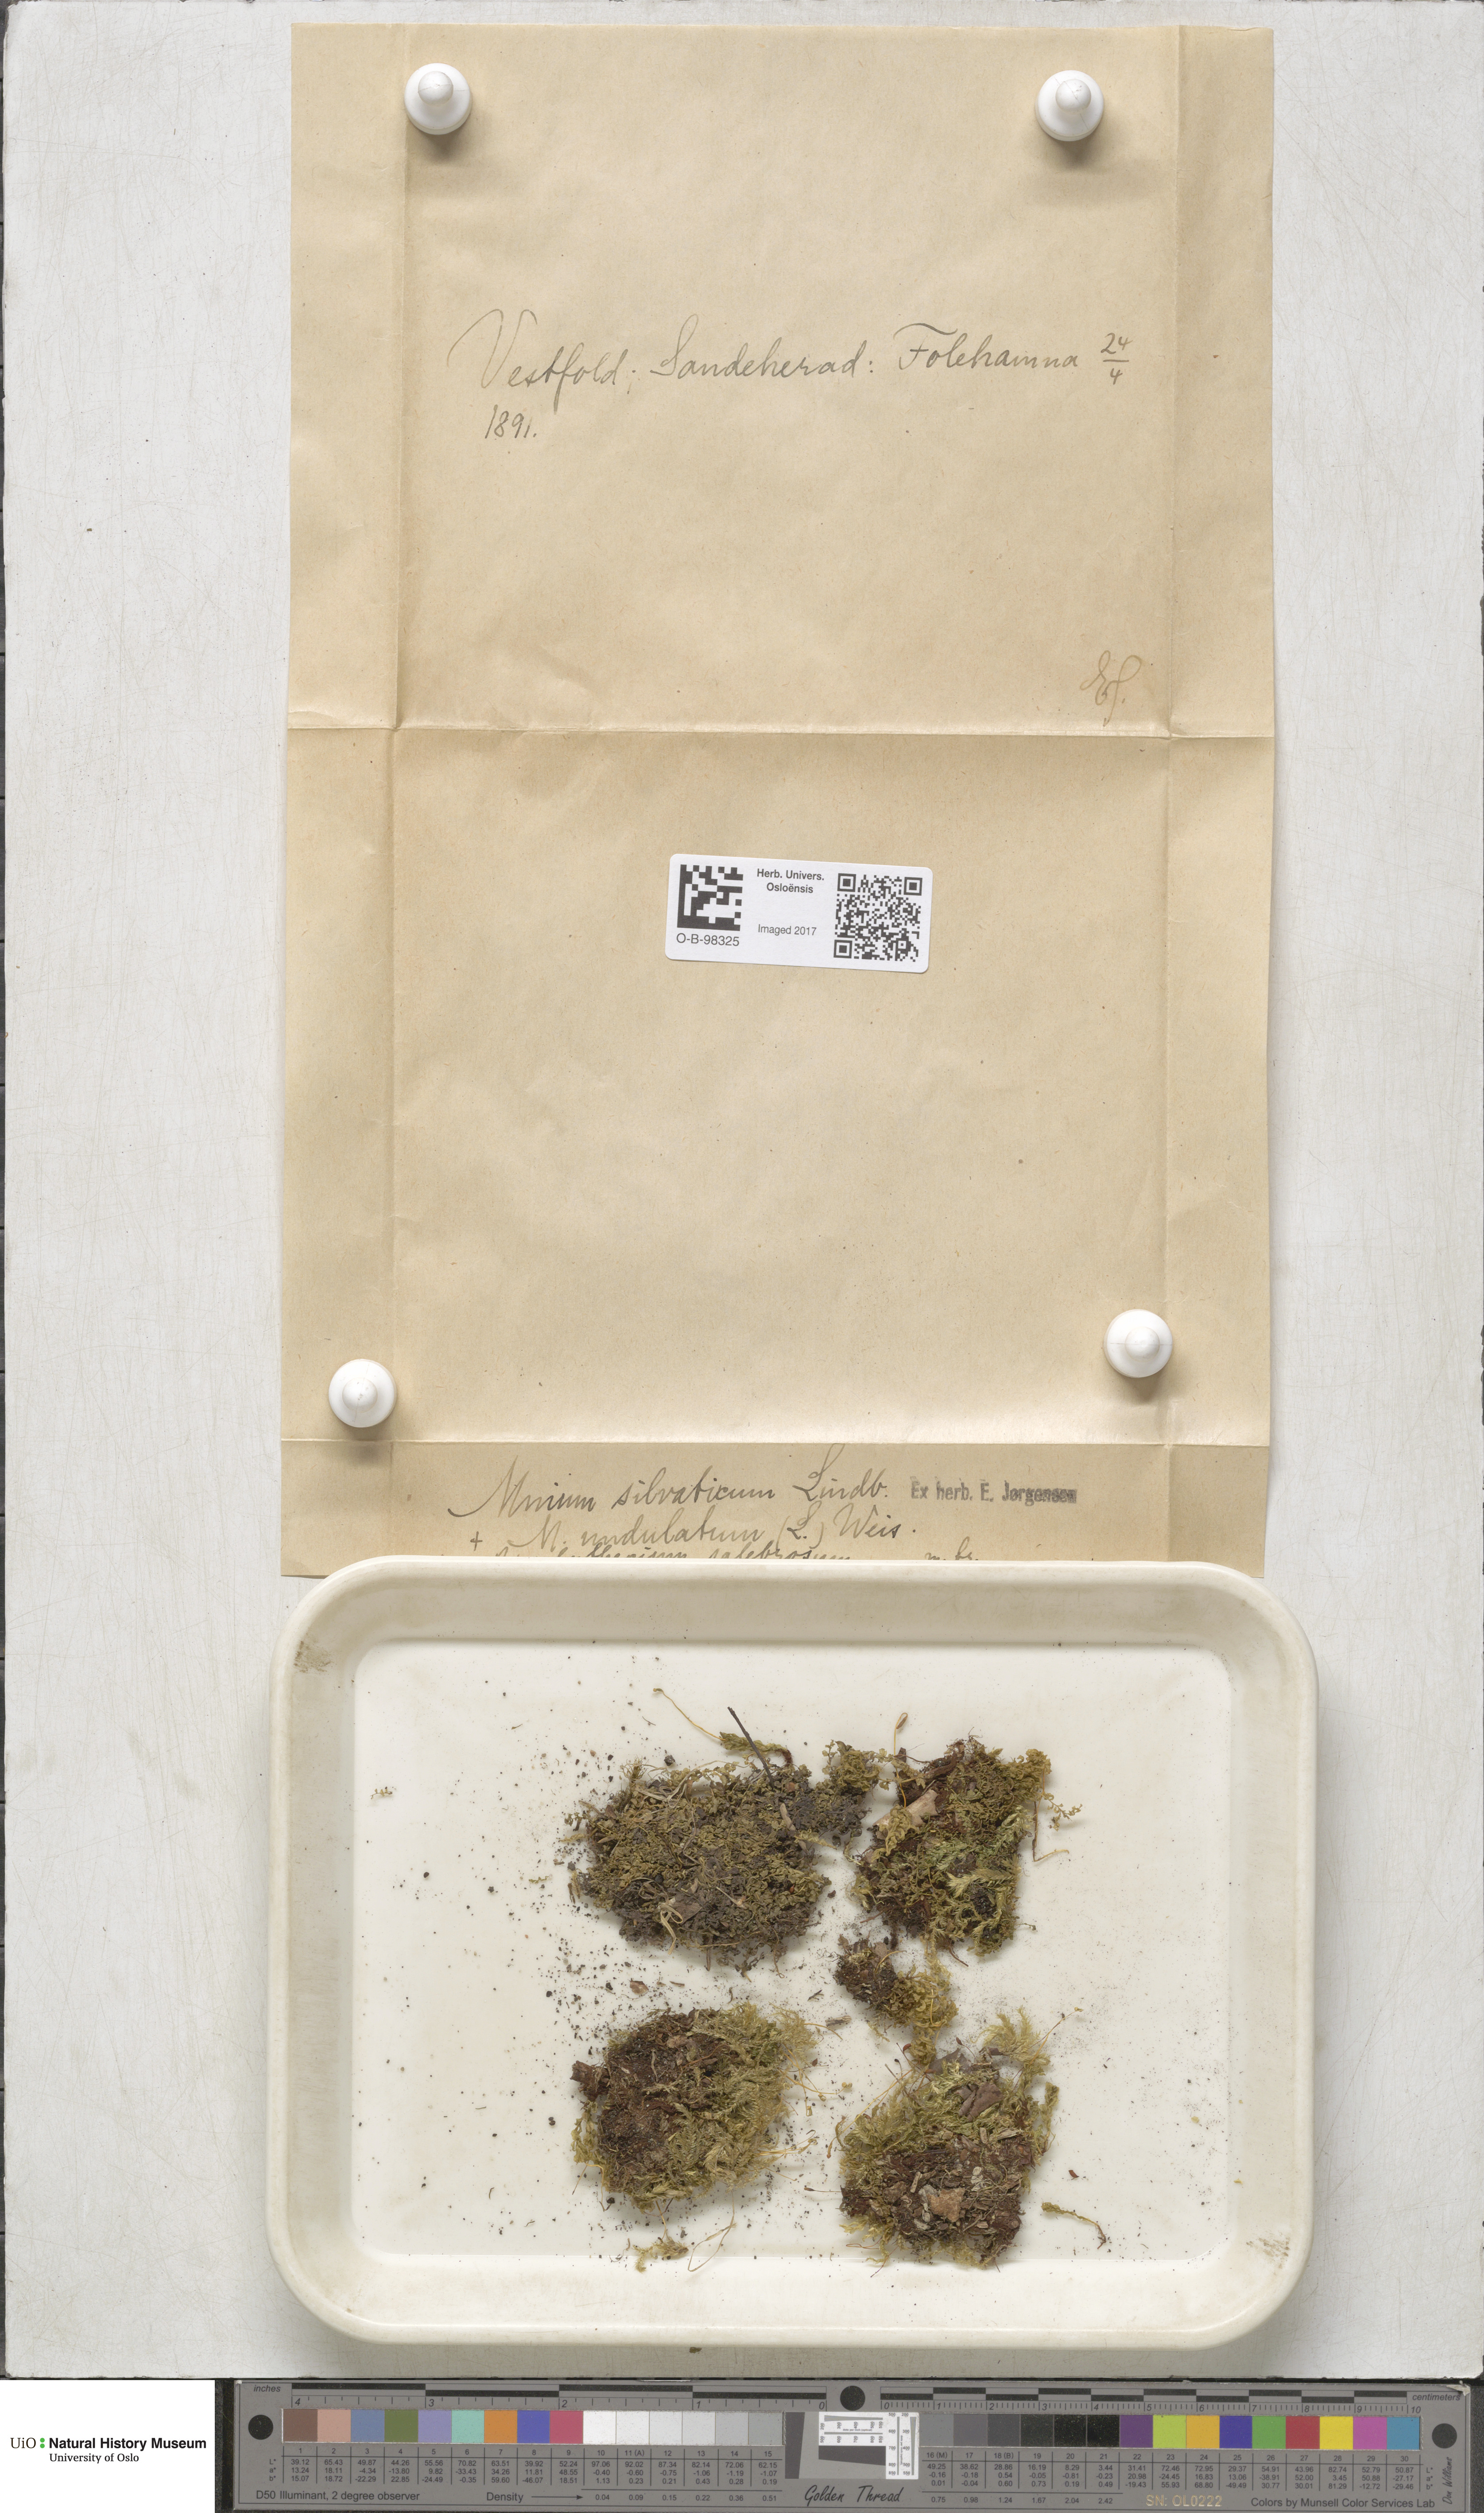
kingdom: Plantae
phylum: Bryophyta
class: Bryopsida
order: Bryales
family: Mniaceae
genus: Plagiomnium
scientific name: Plagiomnium cuspidatum
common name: Woodsy leafy moss
